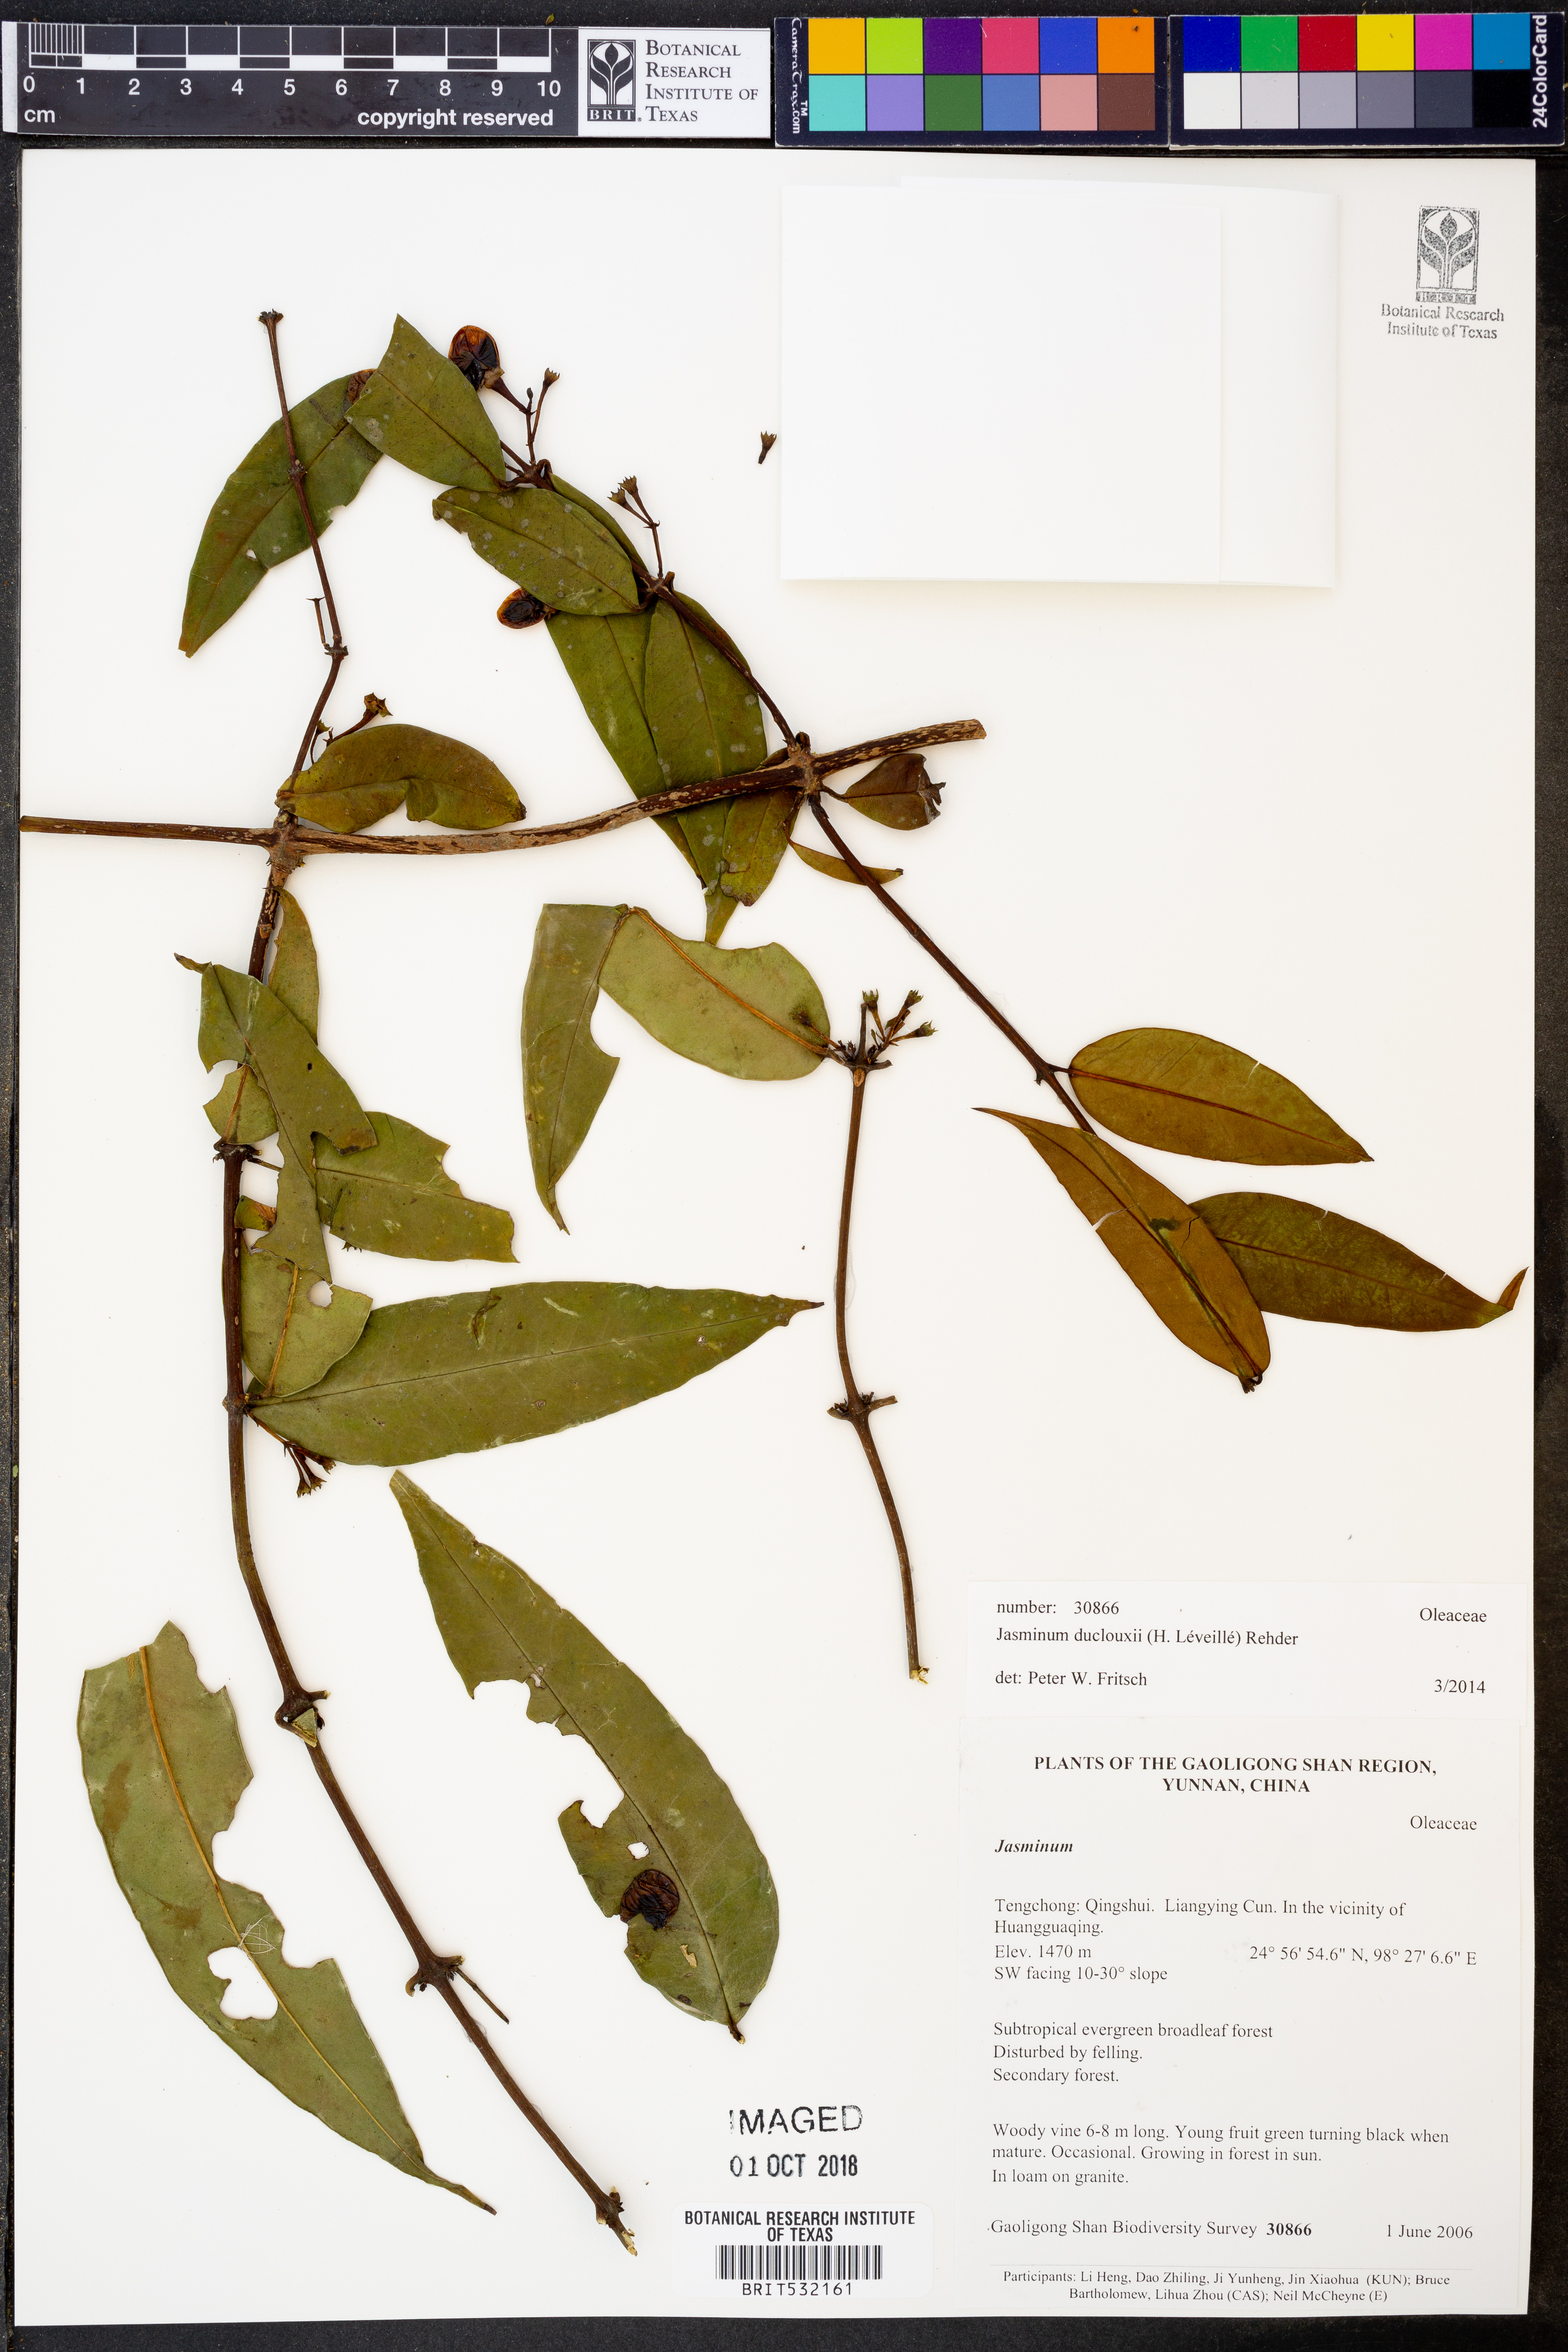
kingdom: Plantae
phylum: Tracheophyta
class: Magnoliopsida
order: Lamiales
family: Oleaceae
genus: Jasminum
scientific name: Jasminum duclouxii
